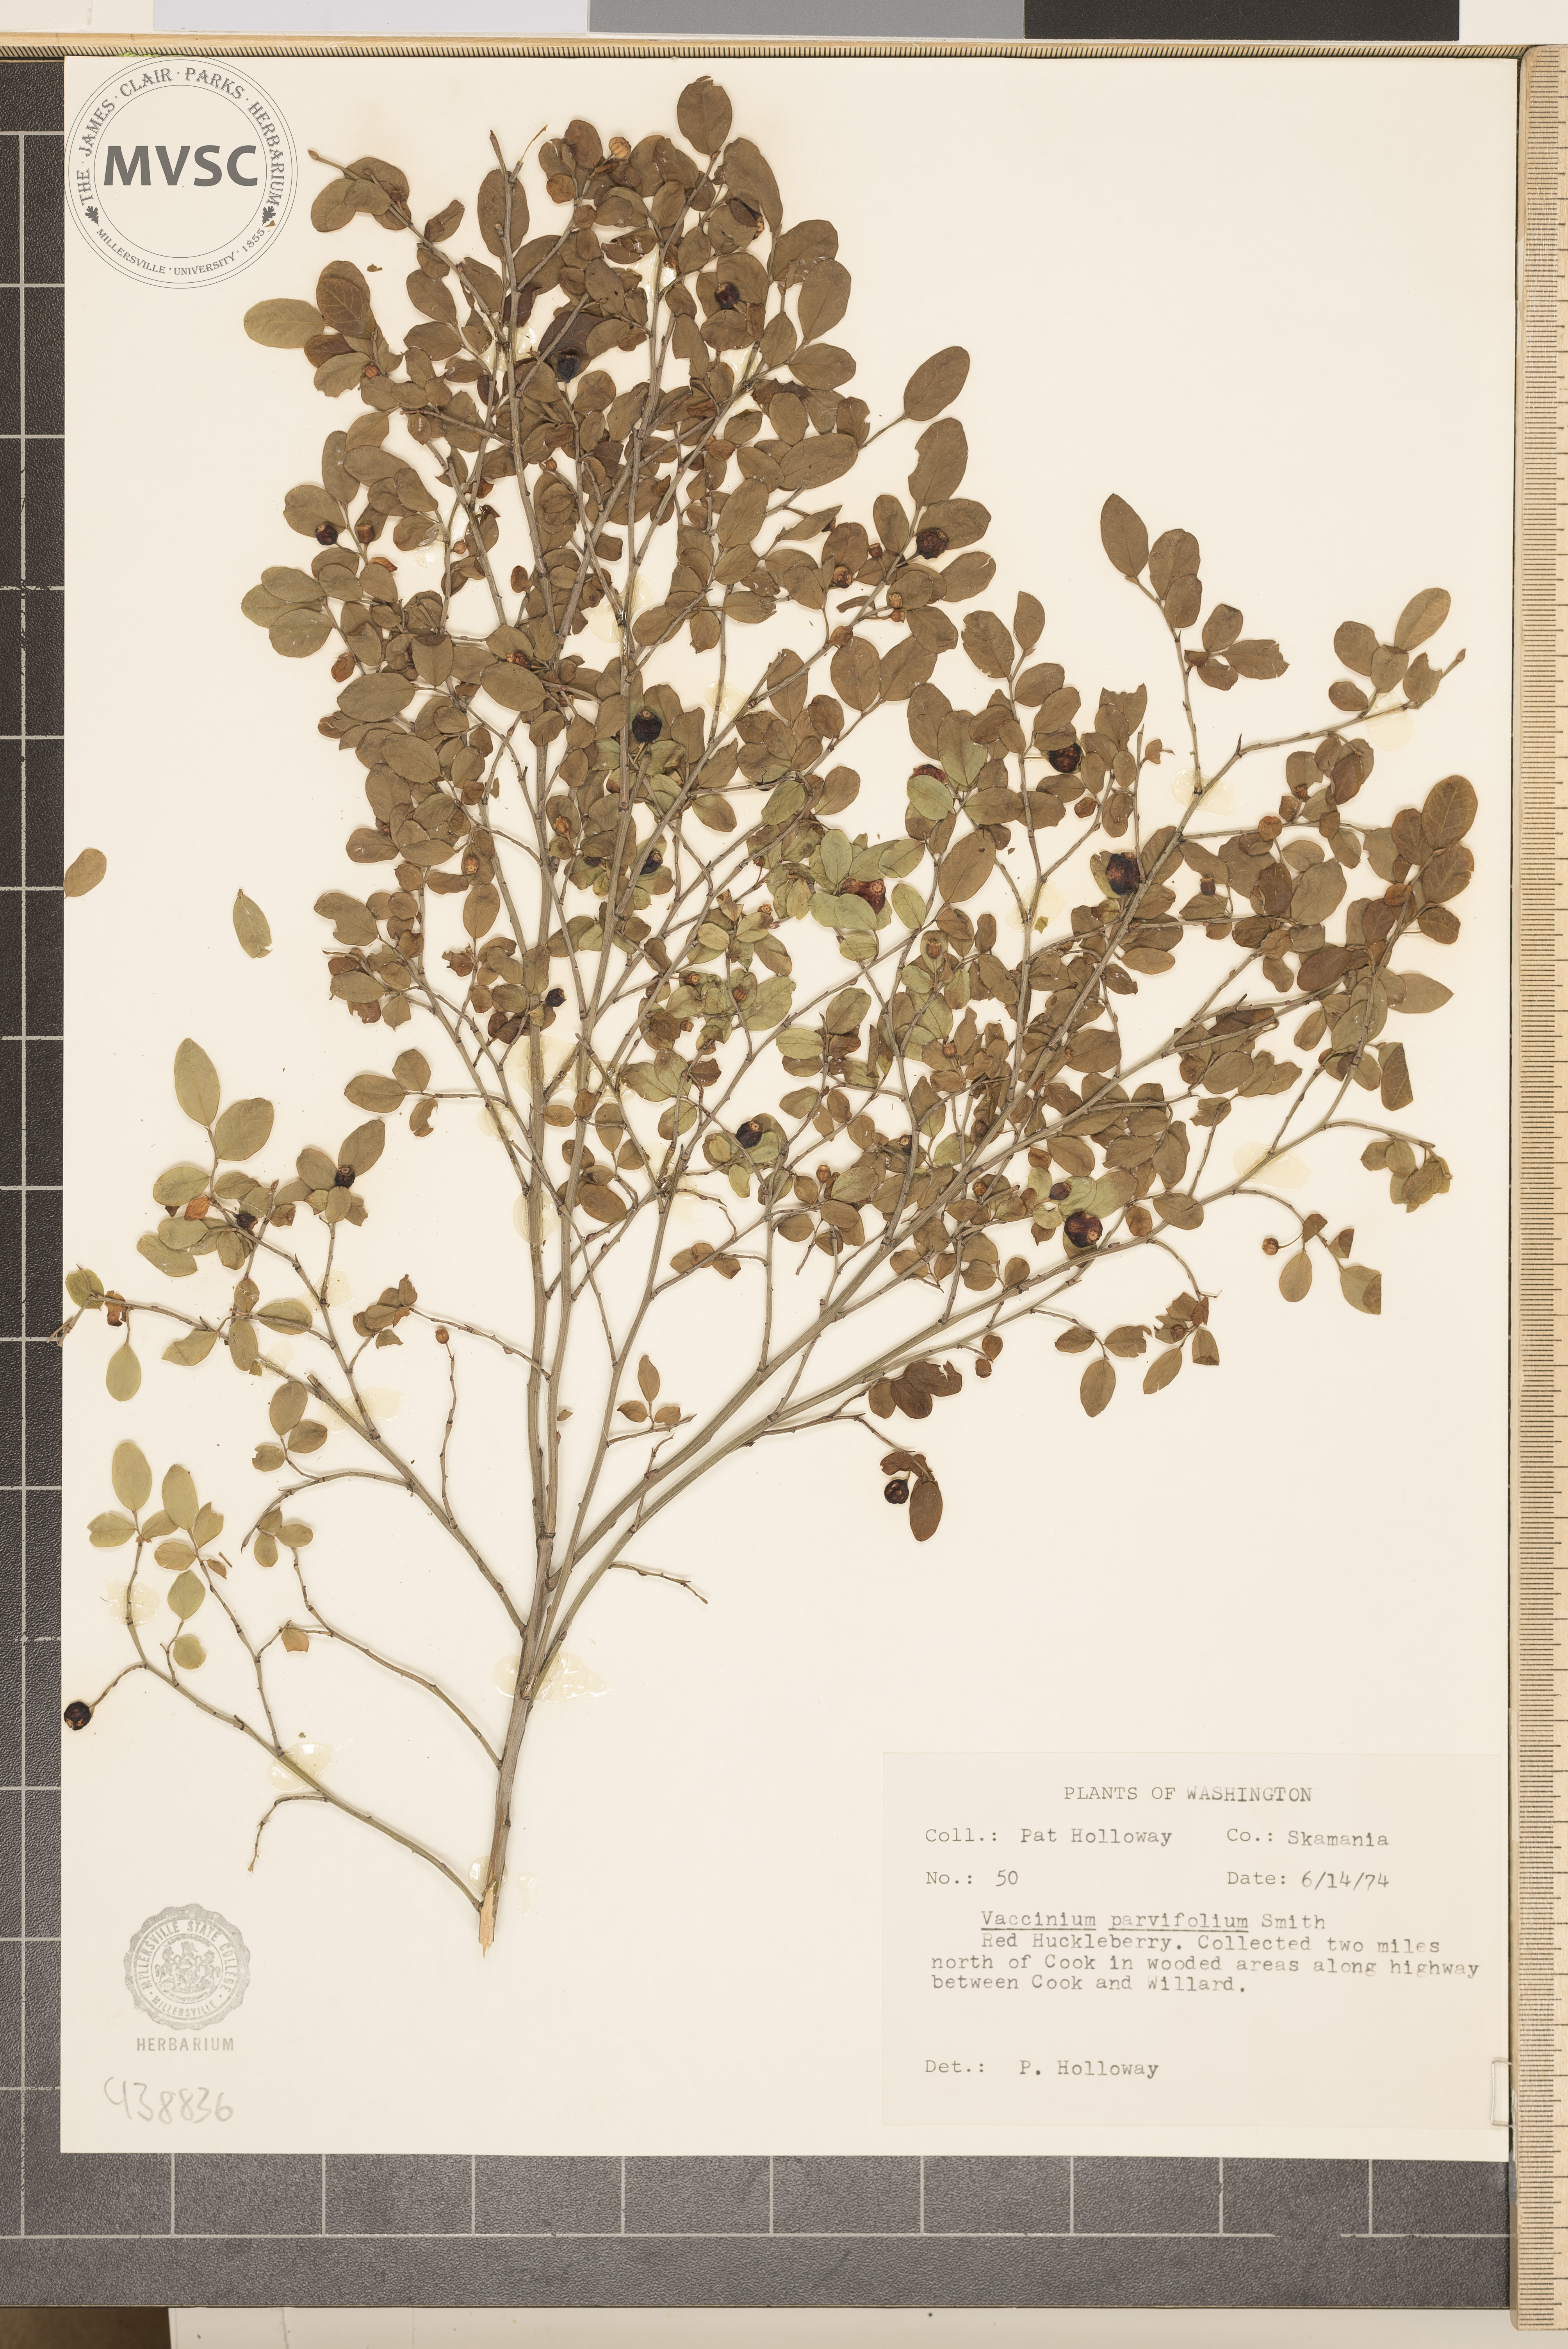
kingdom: Plantae
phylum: Tracheophyta
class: Magnoliopsida
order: Ericales
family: Ericaceae
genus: Vaccinium
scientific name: Vaccinium parvifolium
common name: Red-huckleberry
